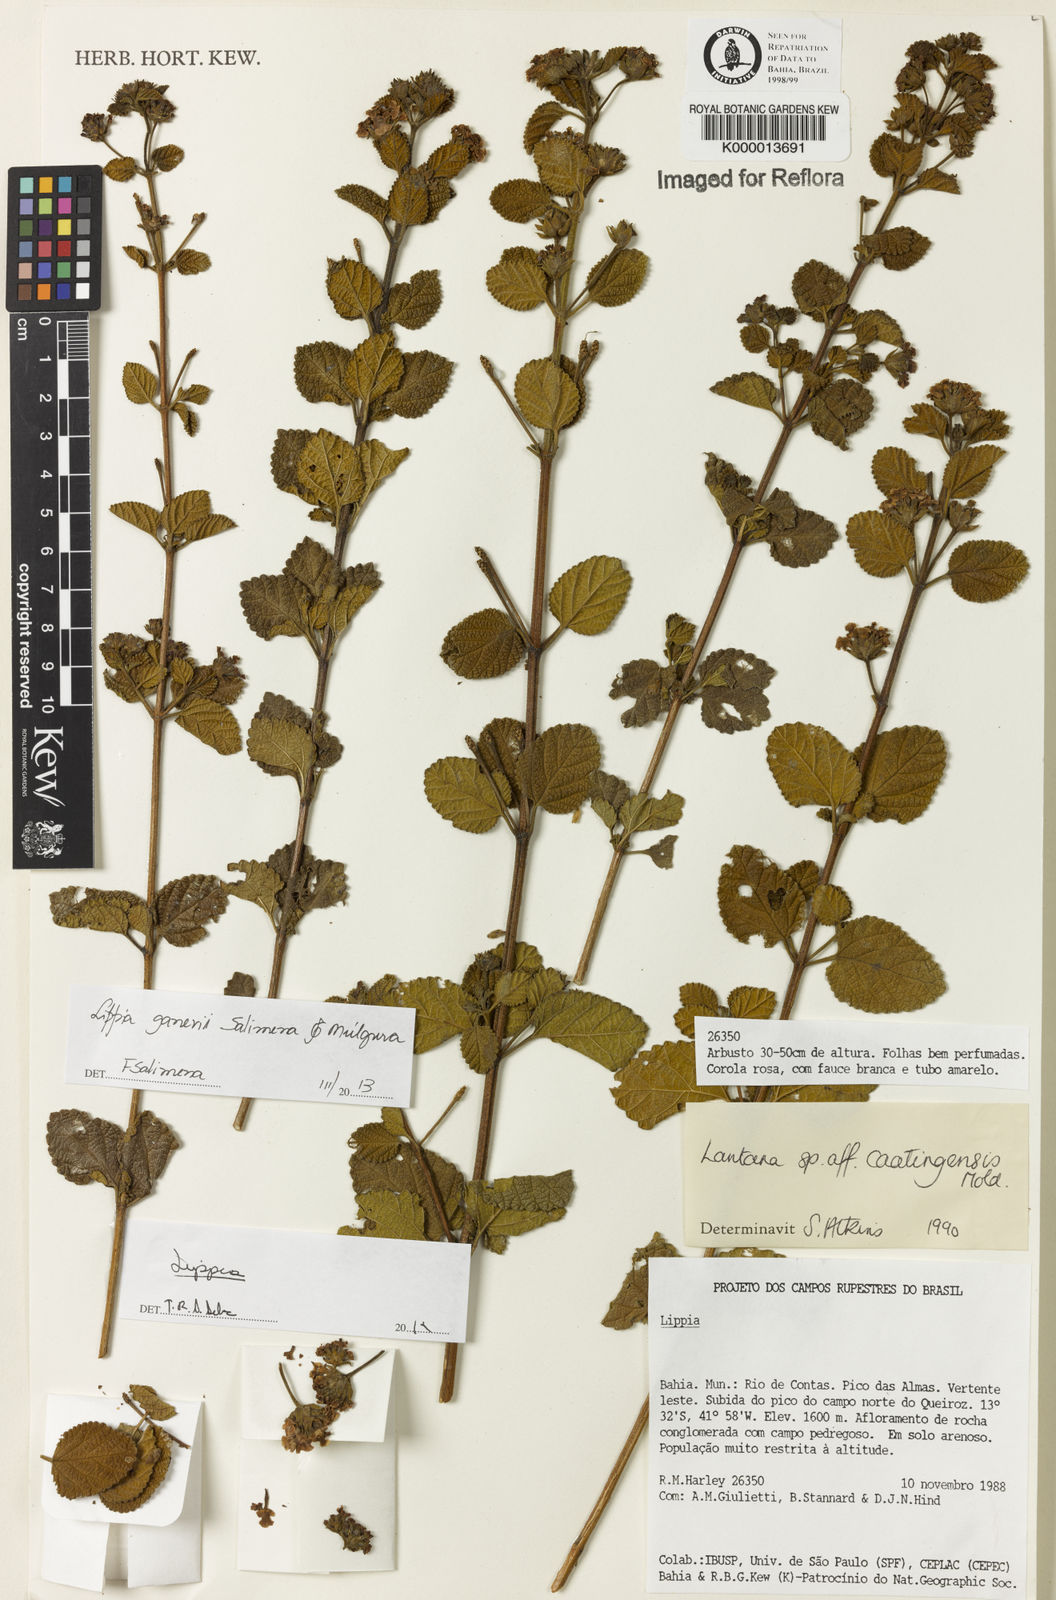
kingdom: Plantae
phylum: Tracheophyta
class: Magnoliopsida
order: Lamiales
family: Verbenaceae
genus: Lippia
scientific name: Lippia
